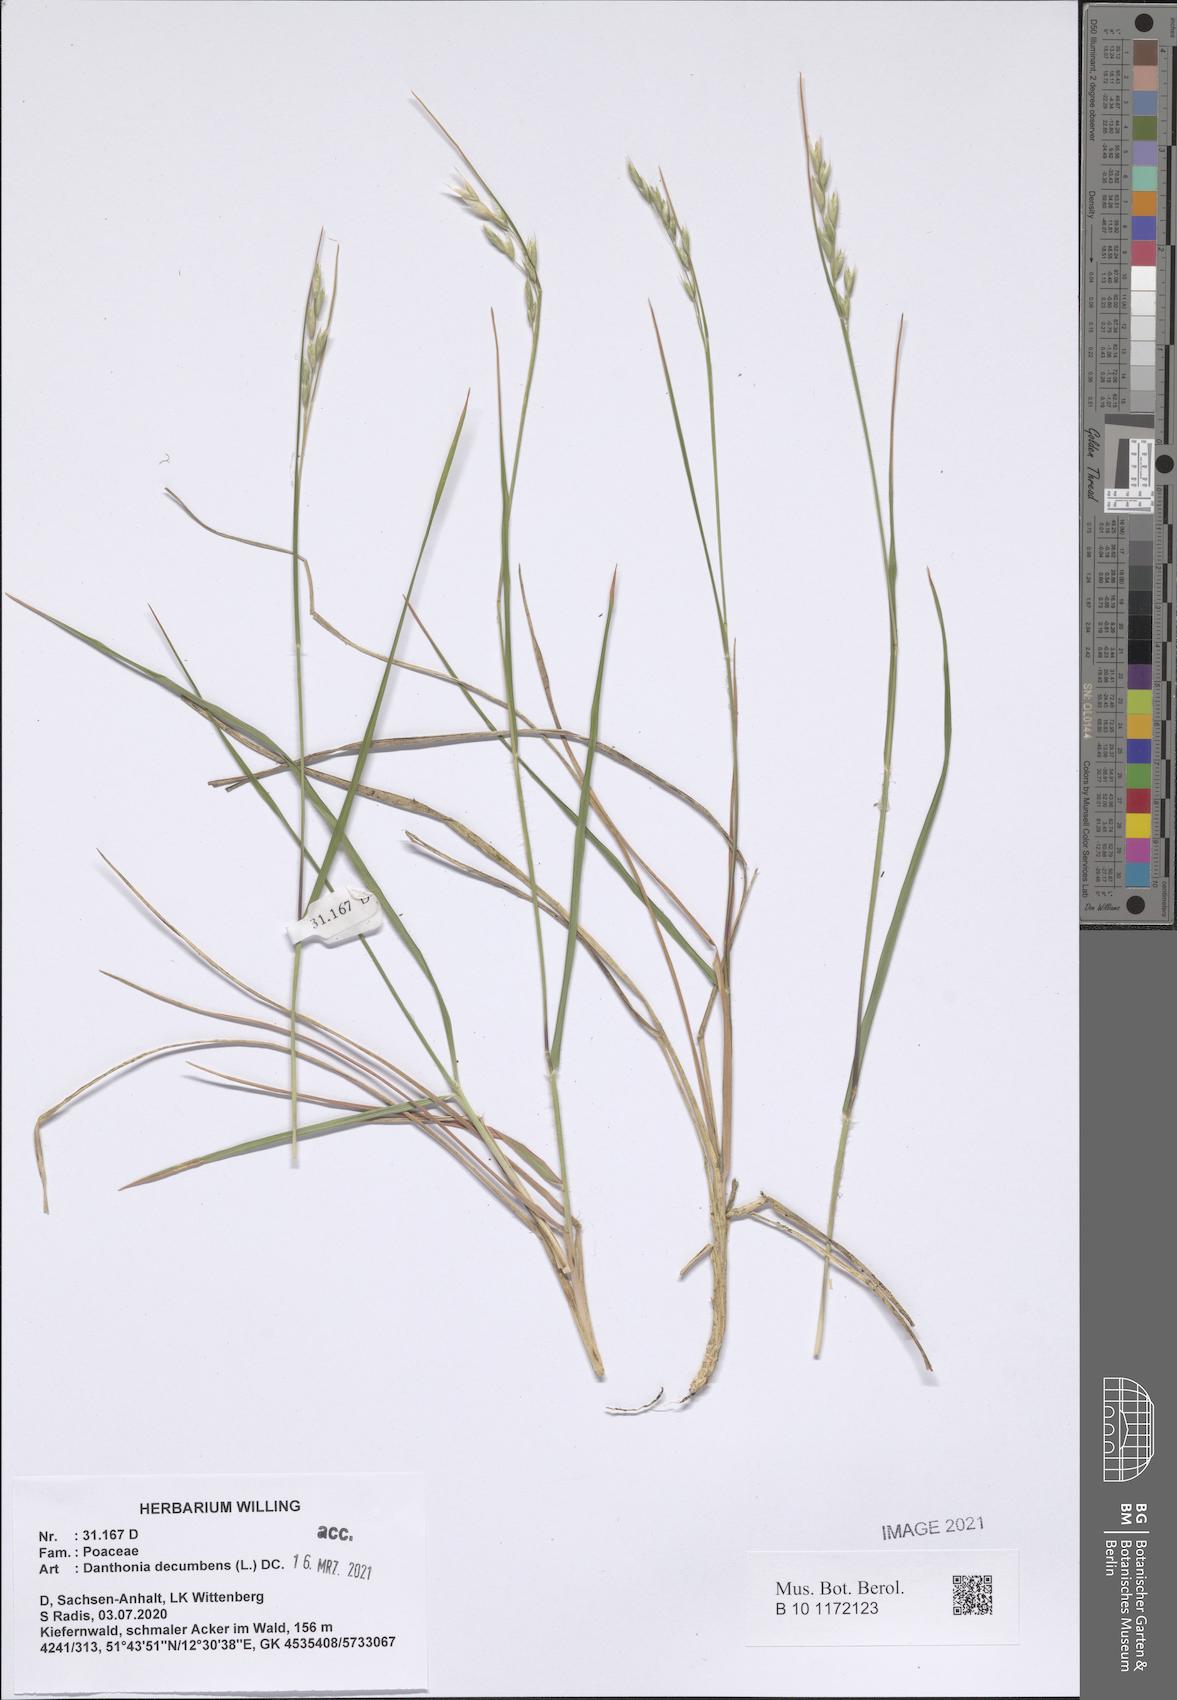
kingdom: Plantae
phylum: Tracheophyta
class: Liliopsida
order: Poales
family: Poaceae
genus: Danthonia
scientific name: Danthonia decumbens
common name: Common heathgrass
